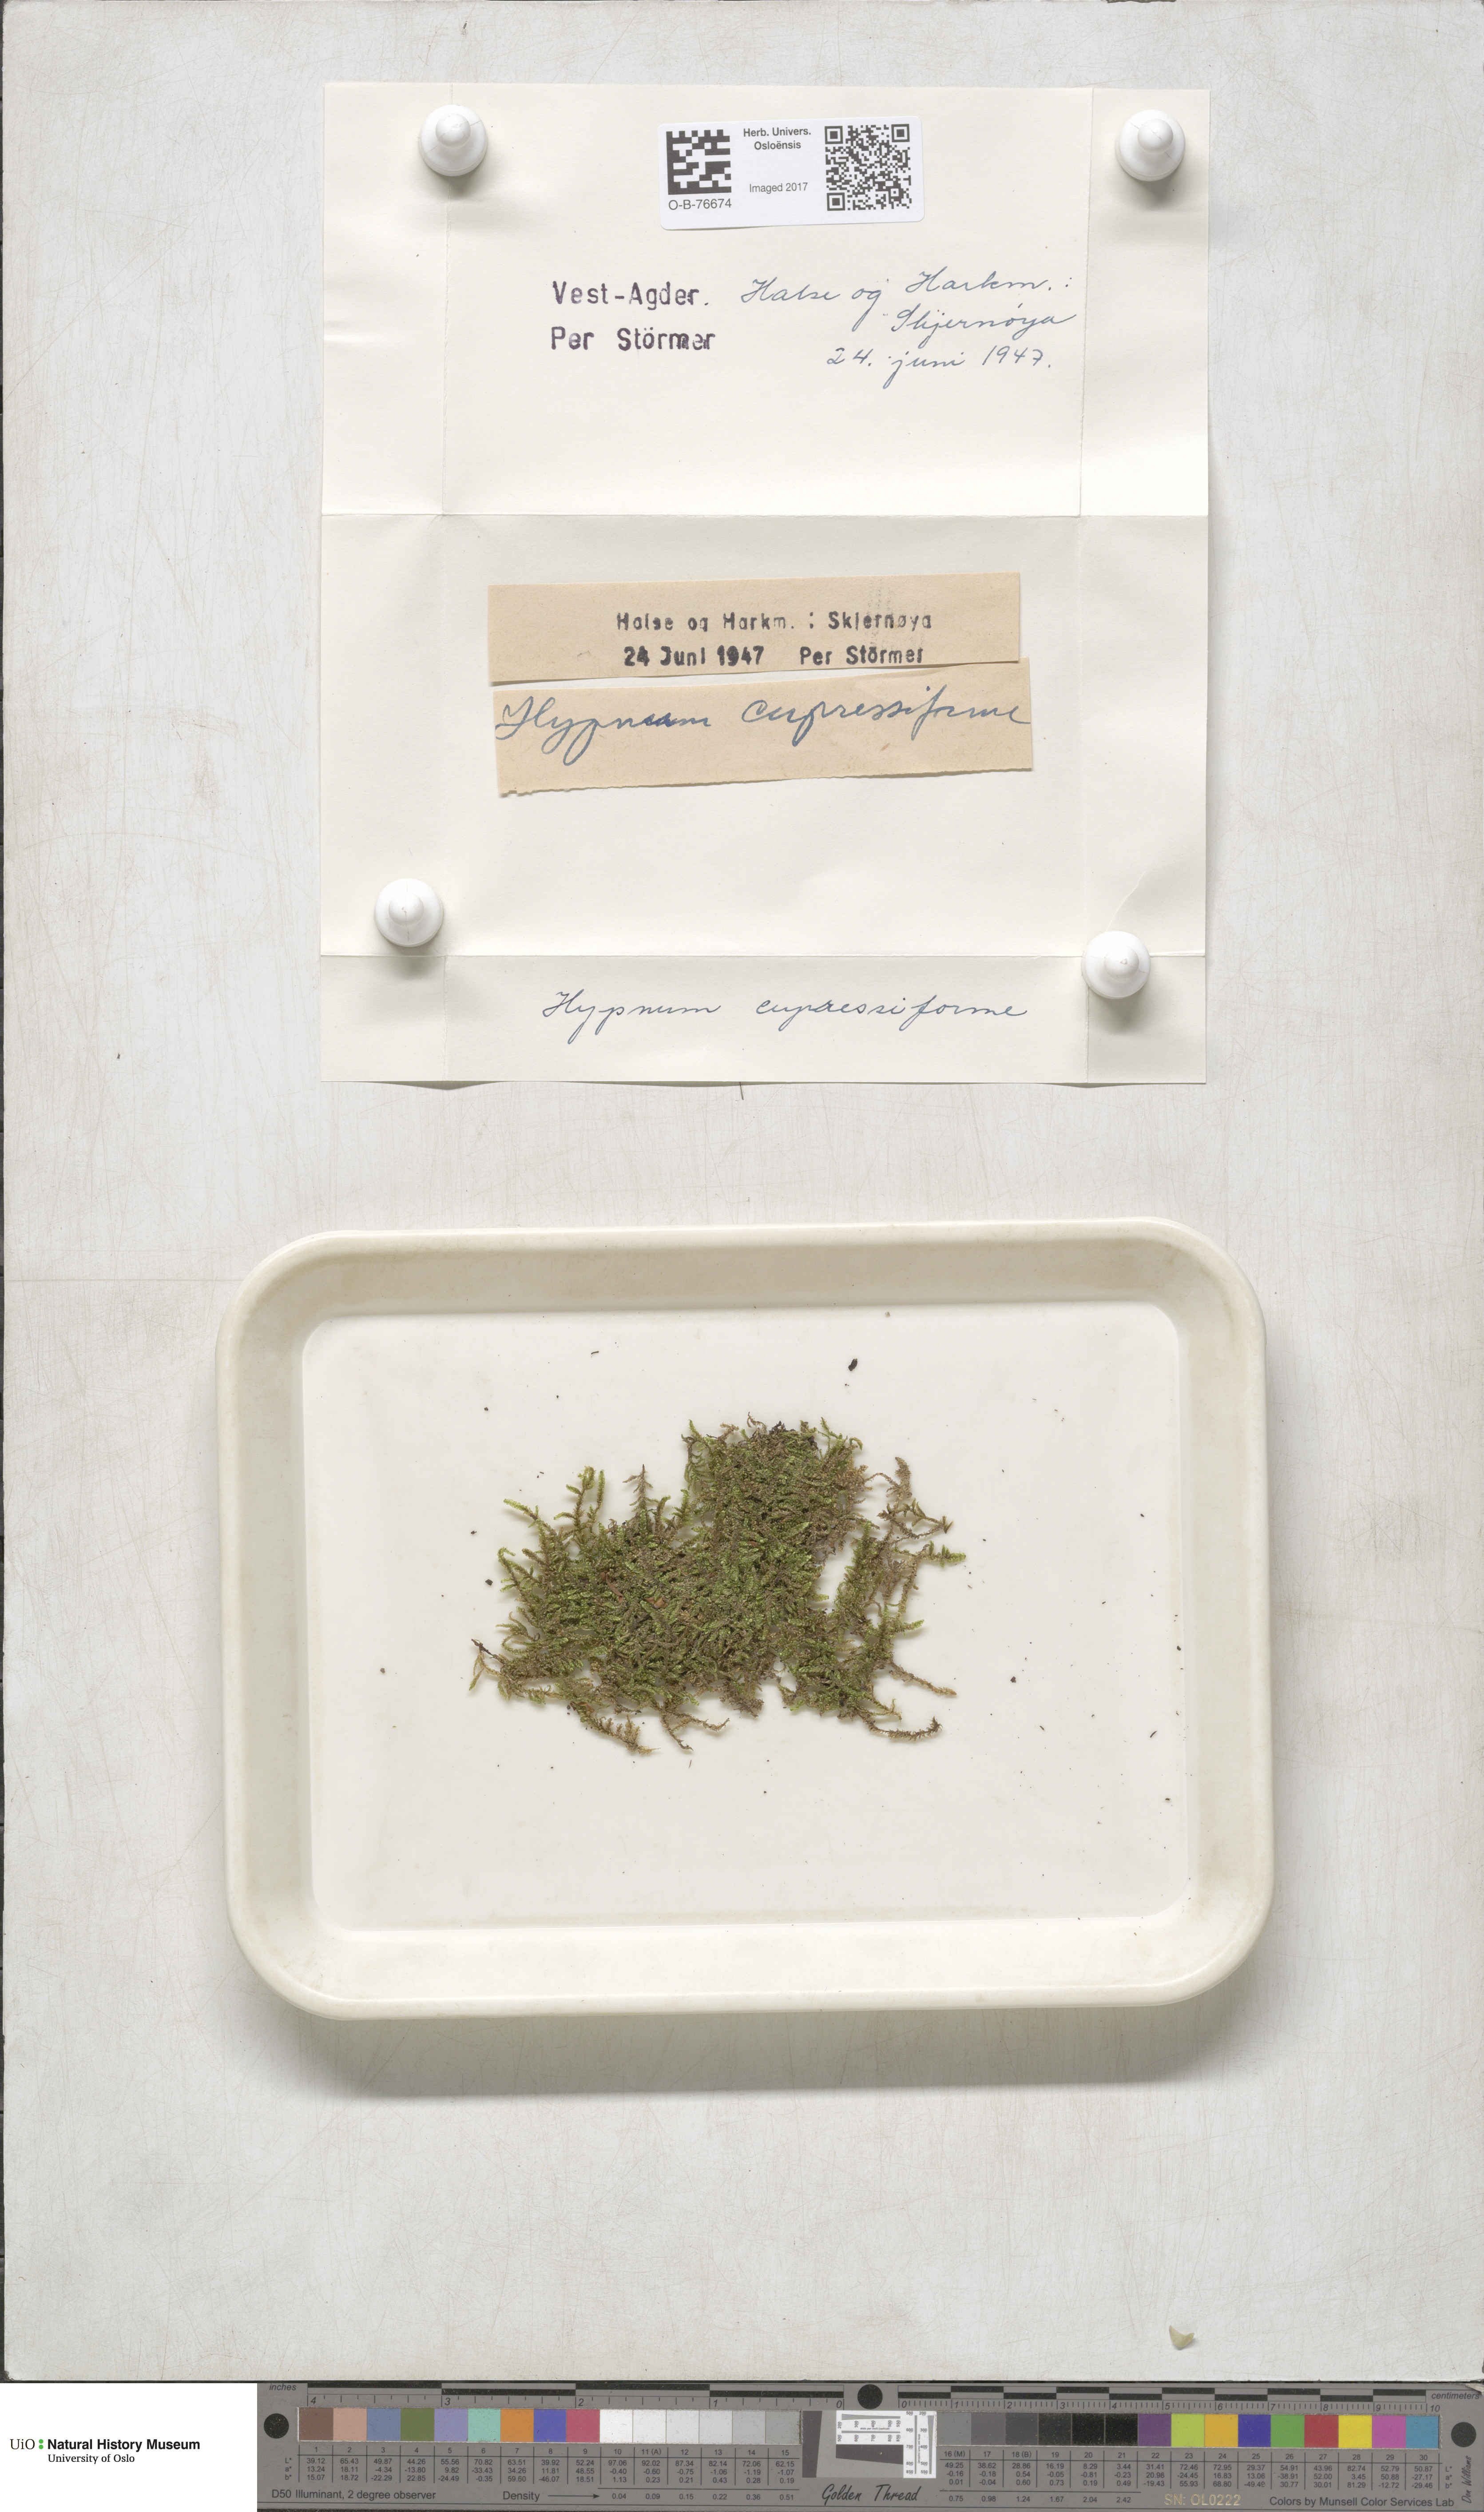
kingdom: Plantae
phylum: Bryophyta
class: Bryopsida
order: Hypnales
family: Hypnaceae
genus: Hypnum
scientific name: Hypnum cupressiforme
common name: Cypress-leaved plait-moss
